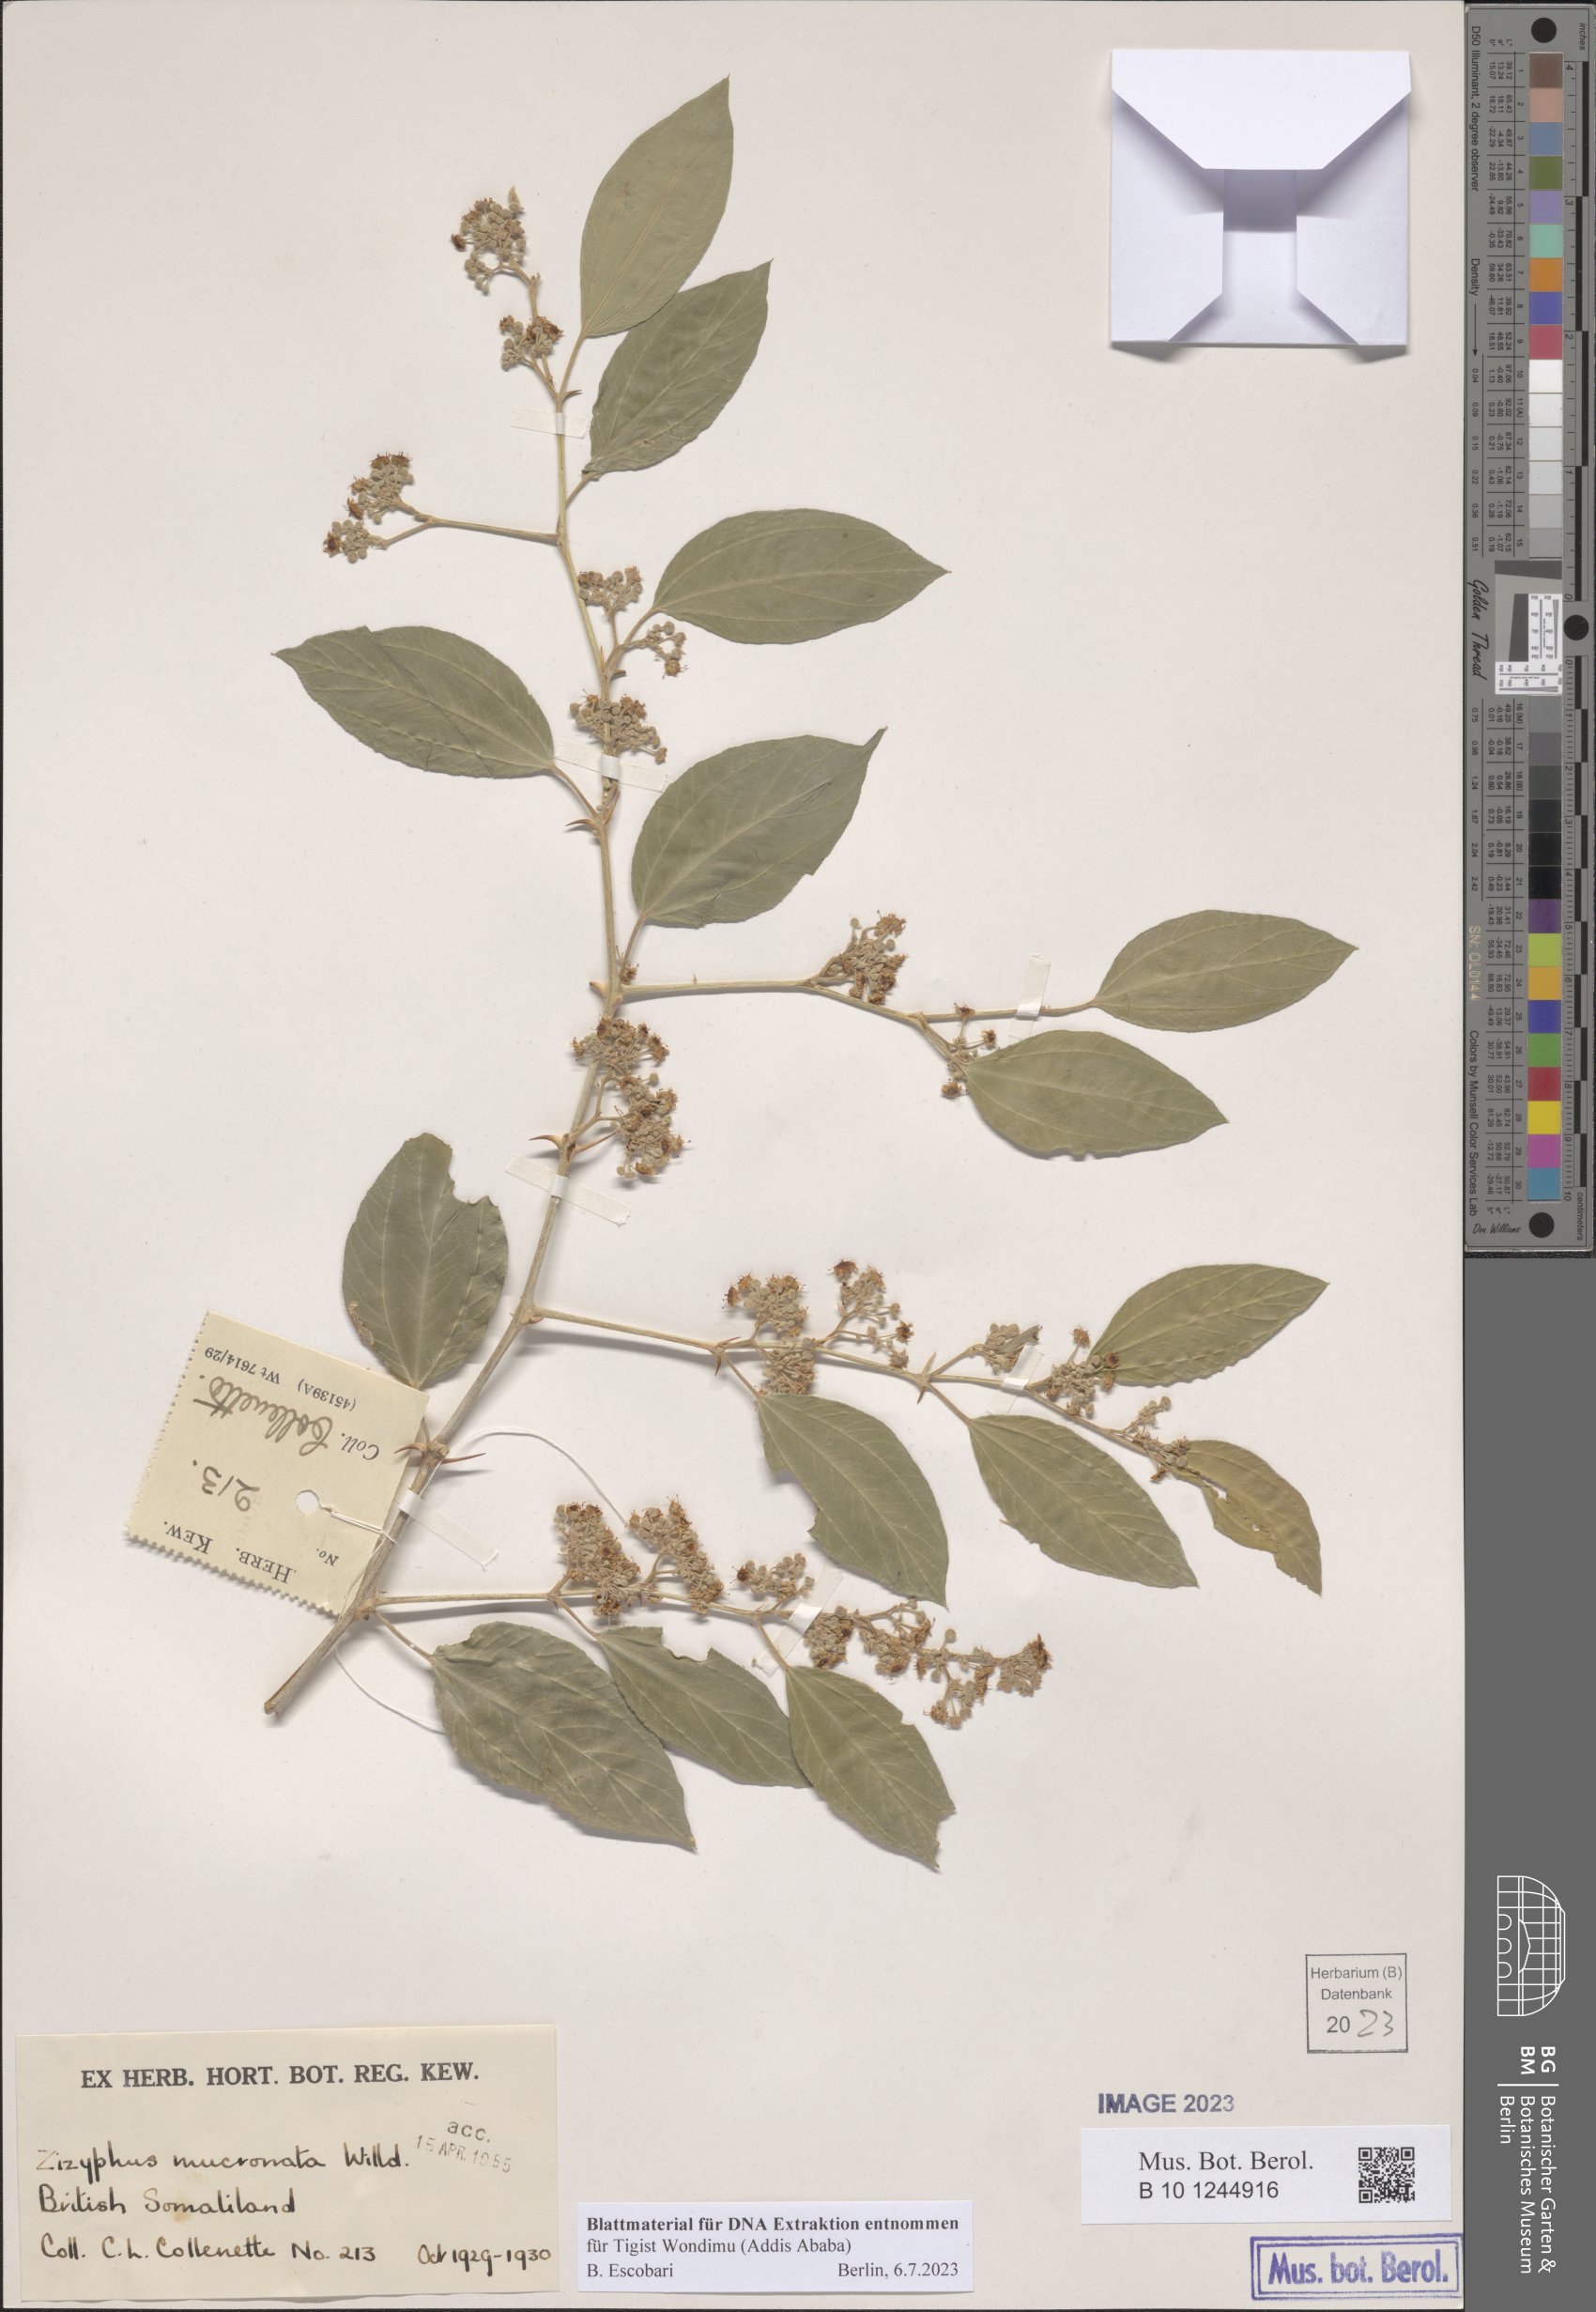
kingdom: Plantae
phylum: Tracheophyta
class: Magnoliopsida
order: Rosales
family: Rhamnaceae
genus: Ziziphus
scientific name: Ziziphus mucronata
